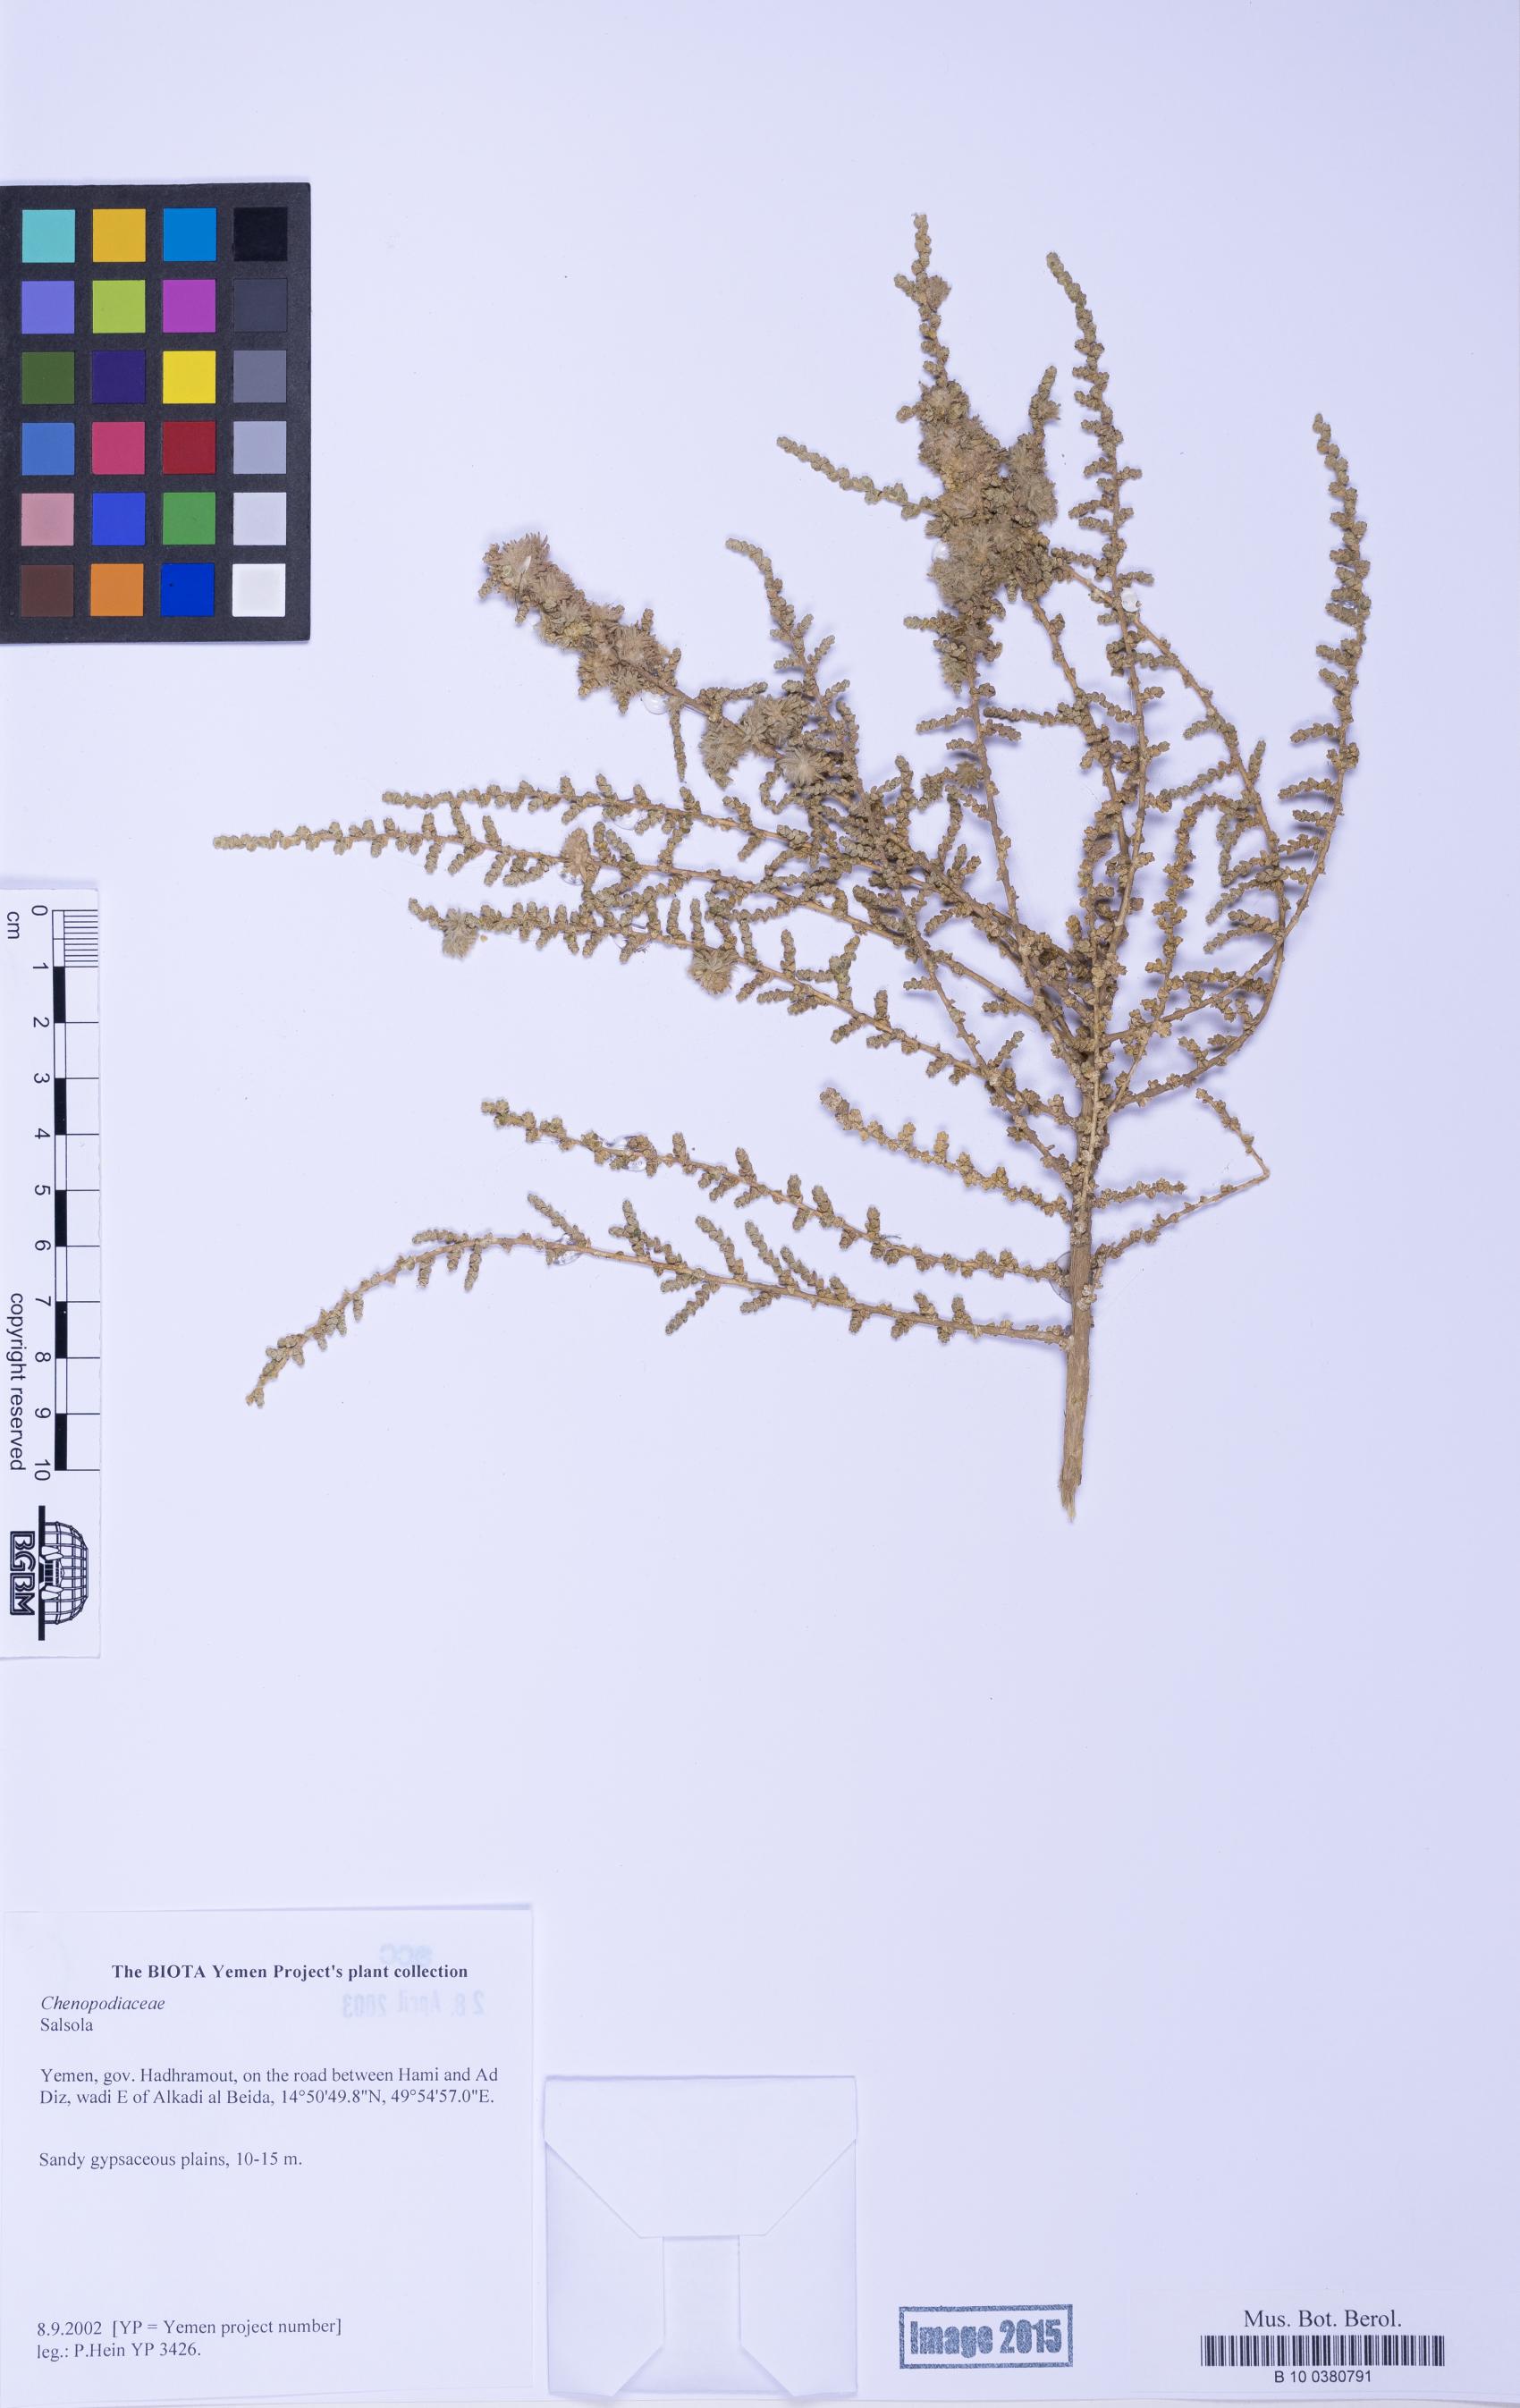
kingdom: Plantae
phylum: Tracheophyta
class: Magnoliopsida
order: Caryophyllales
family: Amaranthaceae
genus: Salsola
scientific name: Salsola
